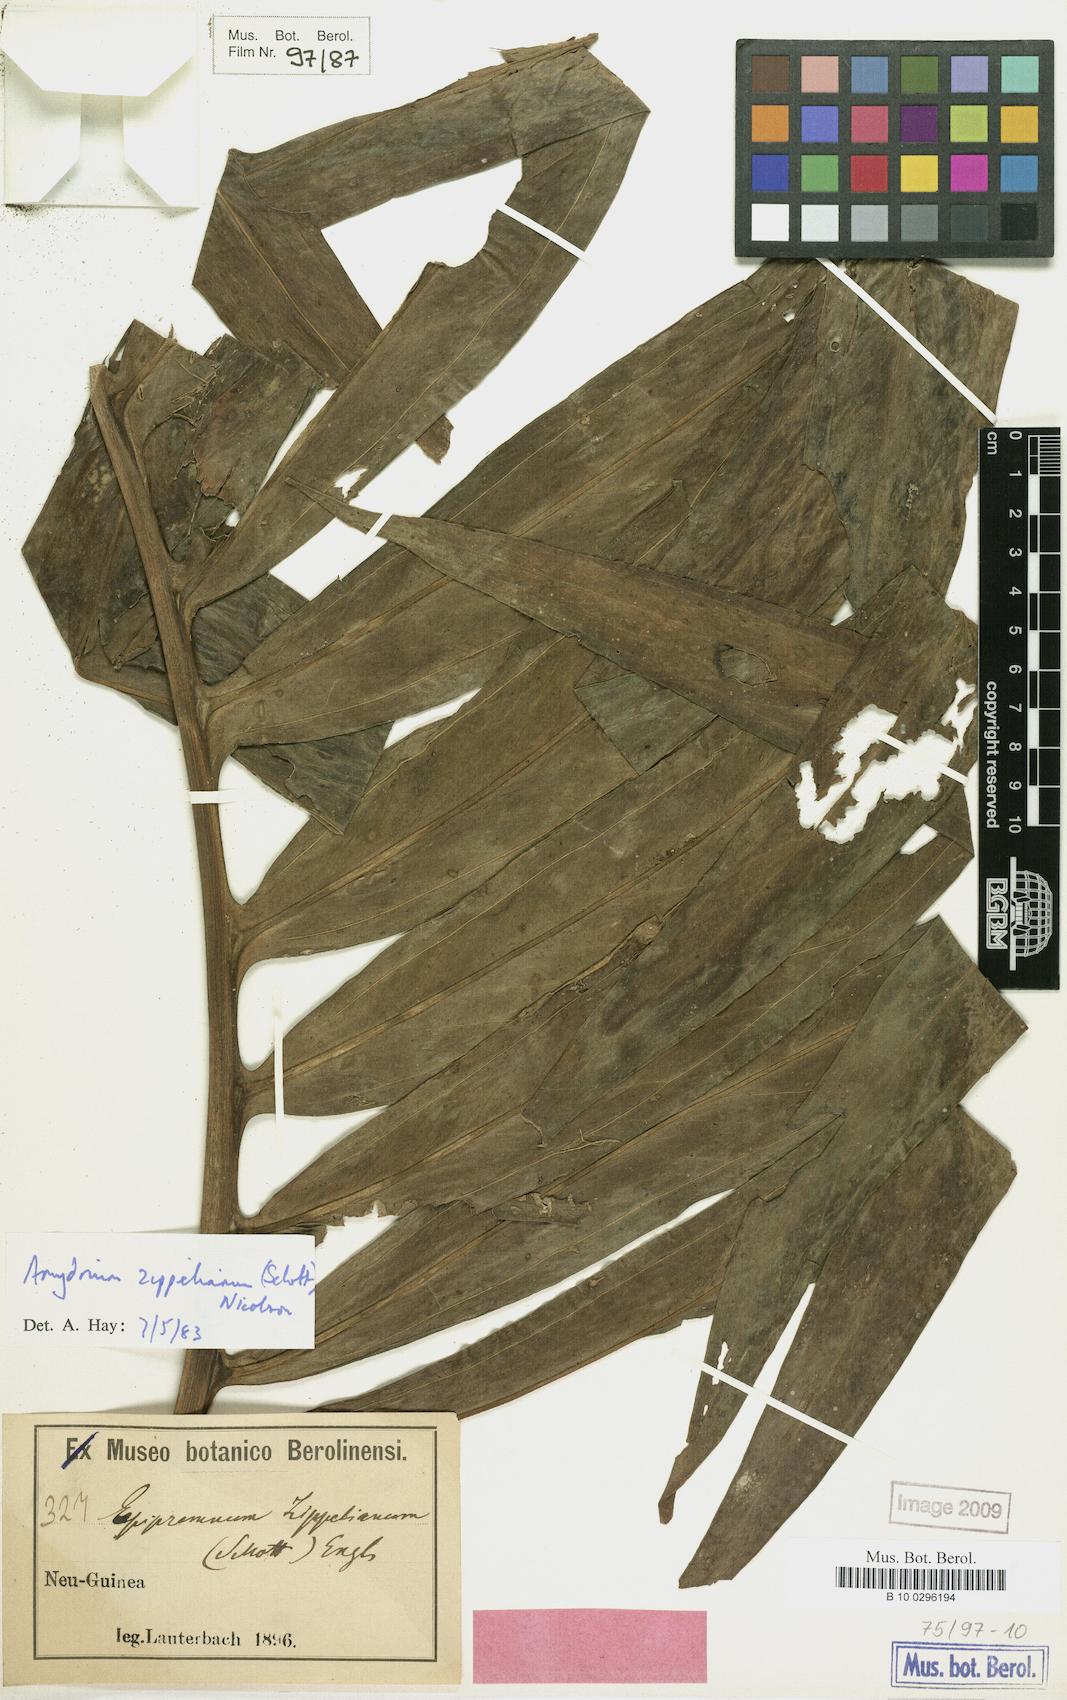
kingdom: Plantae
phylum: Tracheophyta
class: Liliopsida
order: Alismatales
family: Araceae
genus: Amydrium
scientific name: Amydrium zippelianum
